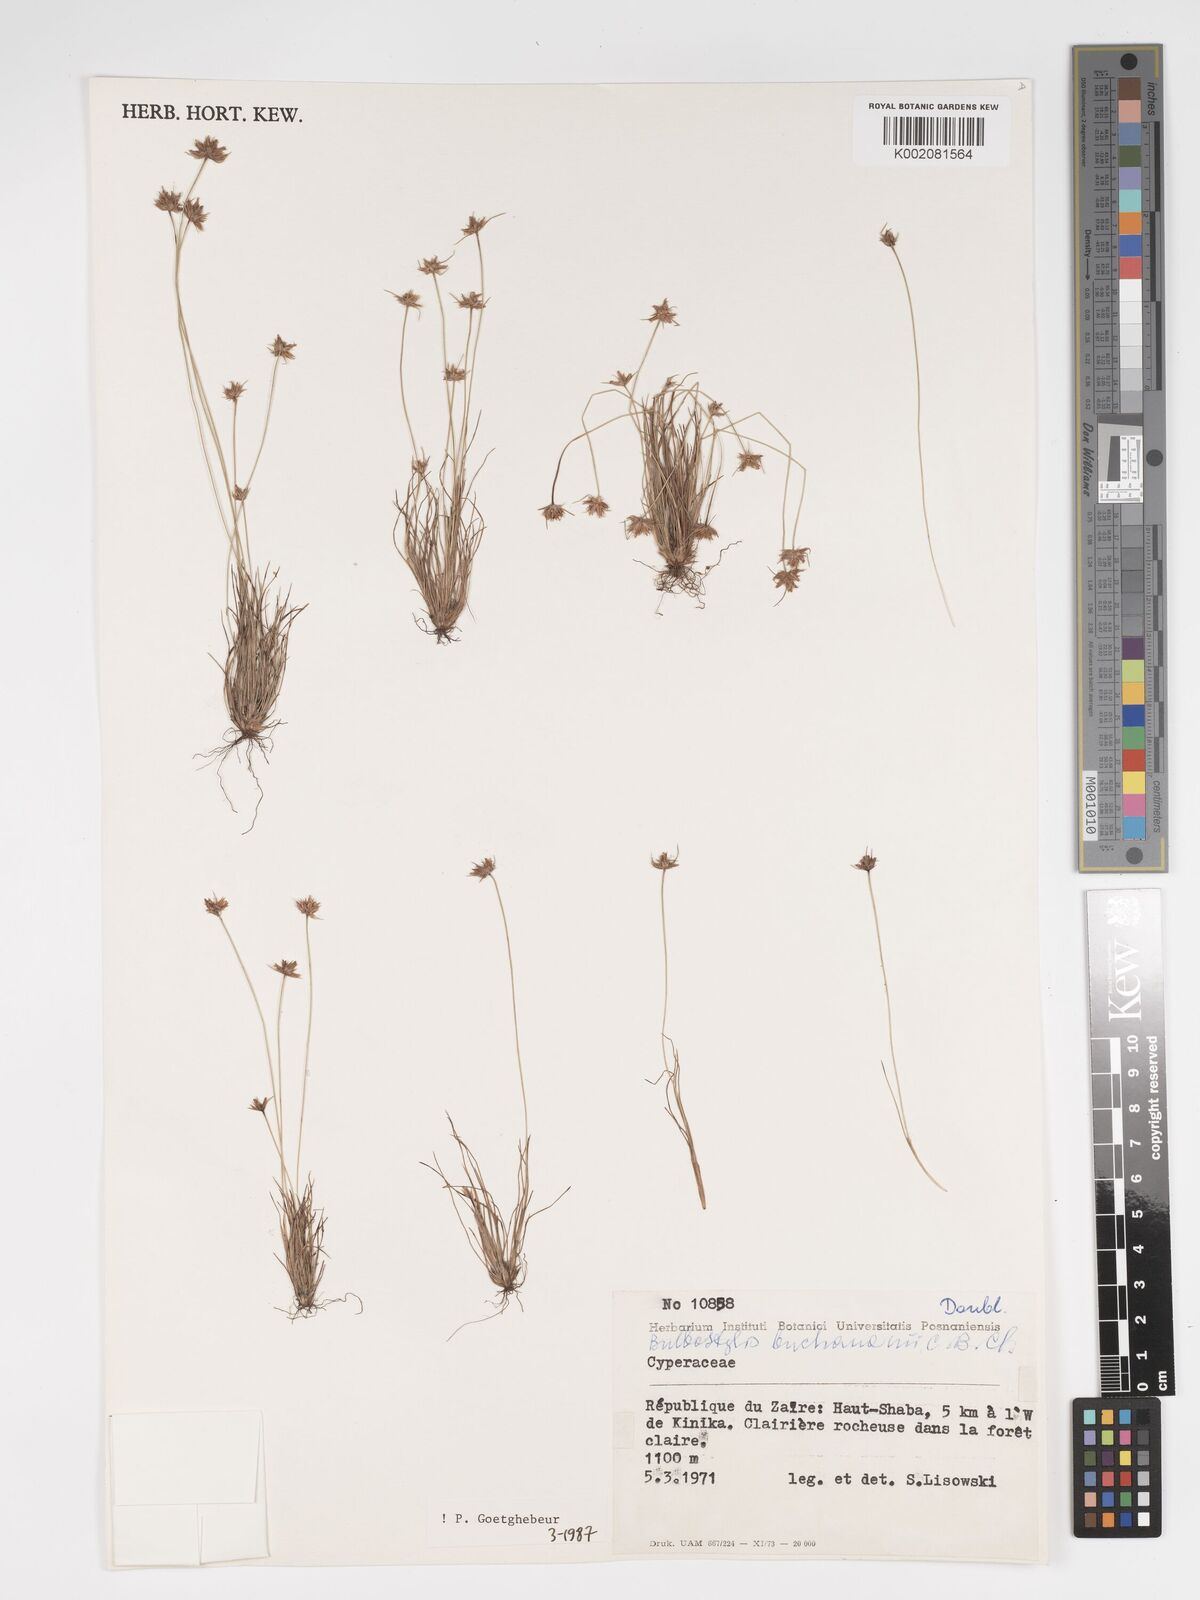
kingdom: Plantae
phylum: Tracheophyta
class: Liliopsida
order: Poales
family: Cyperaceae
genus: Bulbostylis
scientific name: Bulbostylis buchananii
